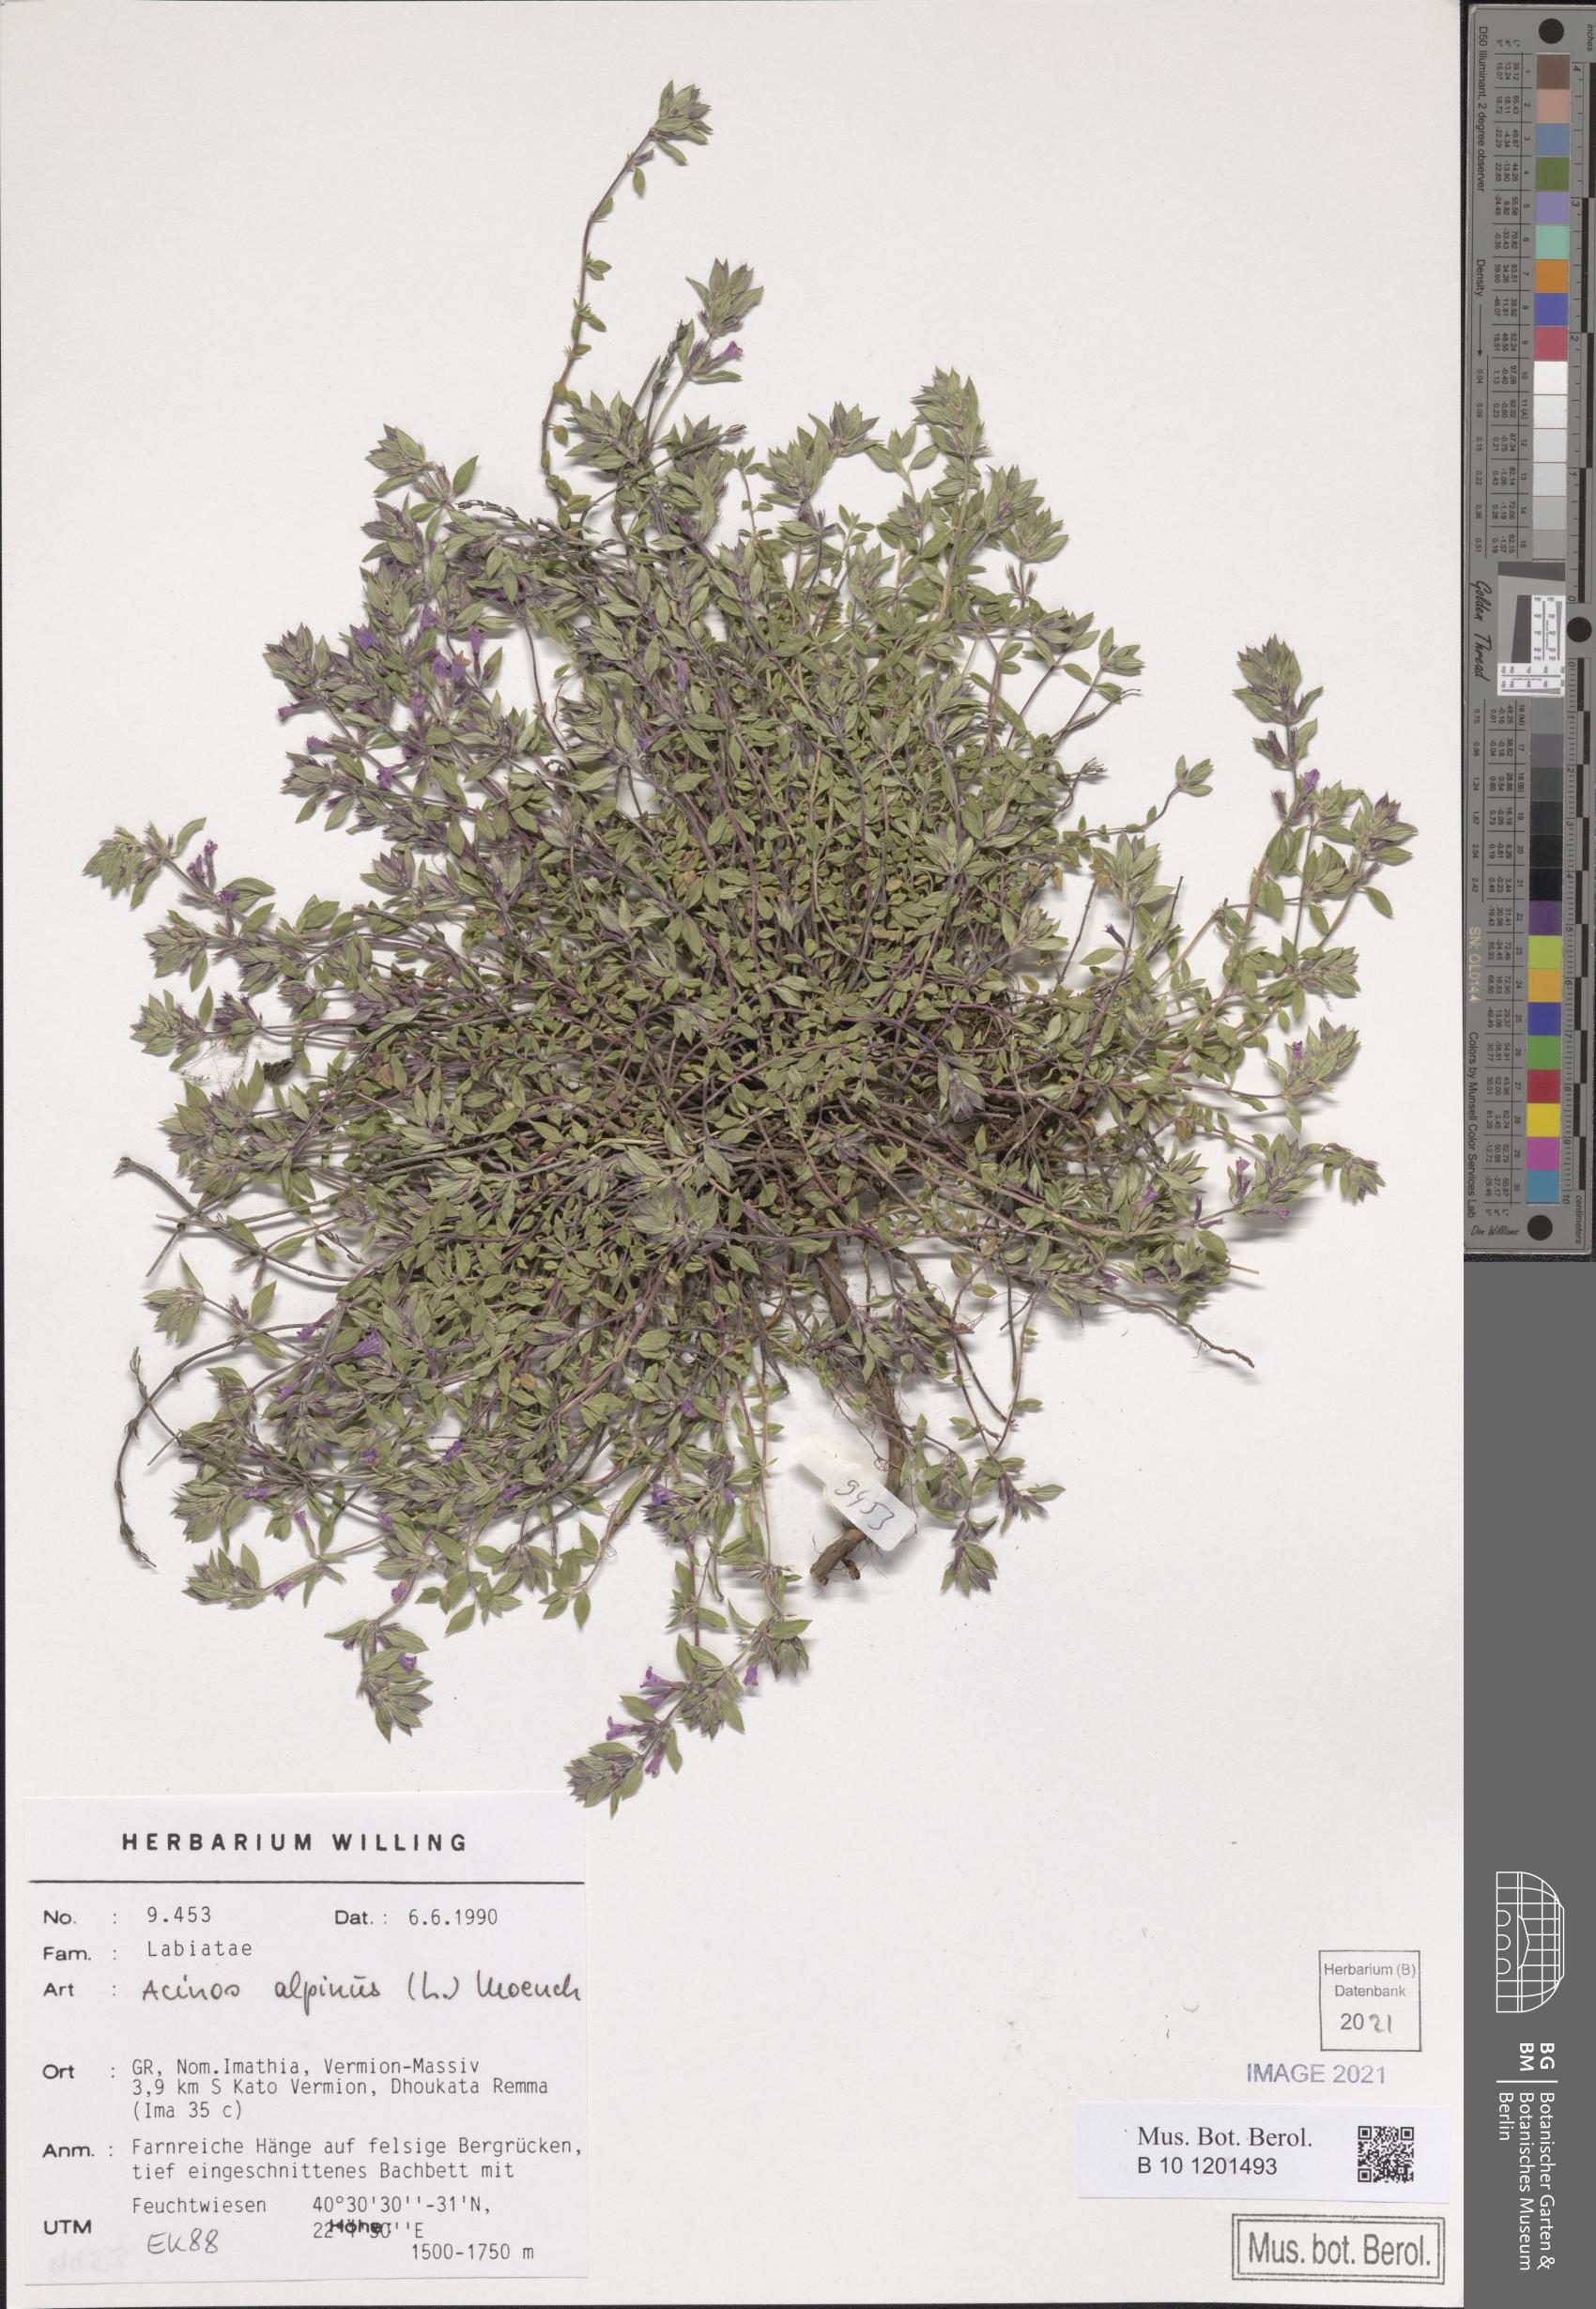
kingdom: Plantae
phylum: Tracheophyta
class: Magnoliopsida
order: Lamiales
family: Lamiaceae
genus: Clinopodium
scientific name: Clinopodium alpinum
